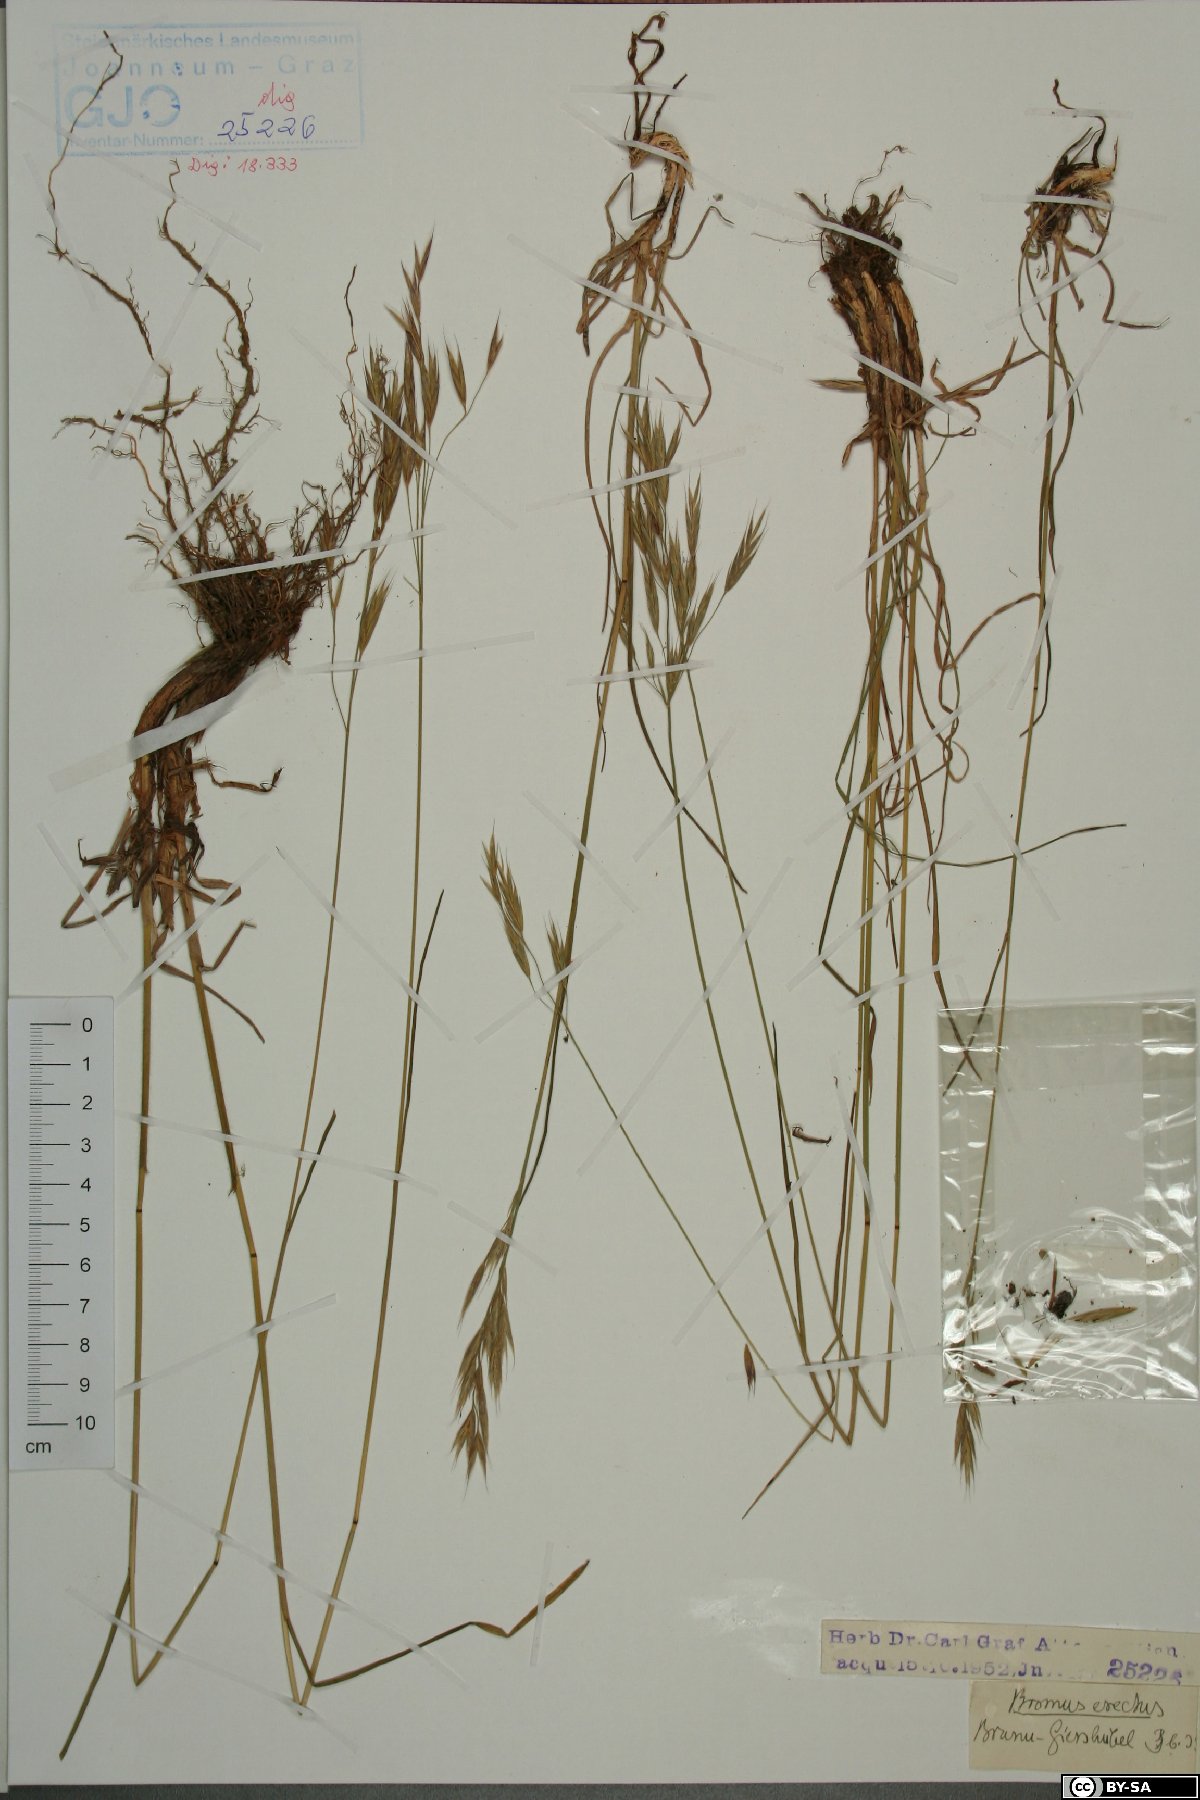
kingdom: Plantae
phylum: Tracheophyta
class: Liliopsida
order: Poales
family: Poaceae
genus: Bromus
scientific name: Bromus erectus
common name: Erect brome
